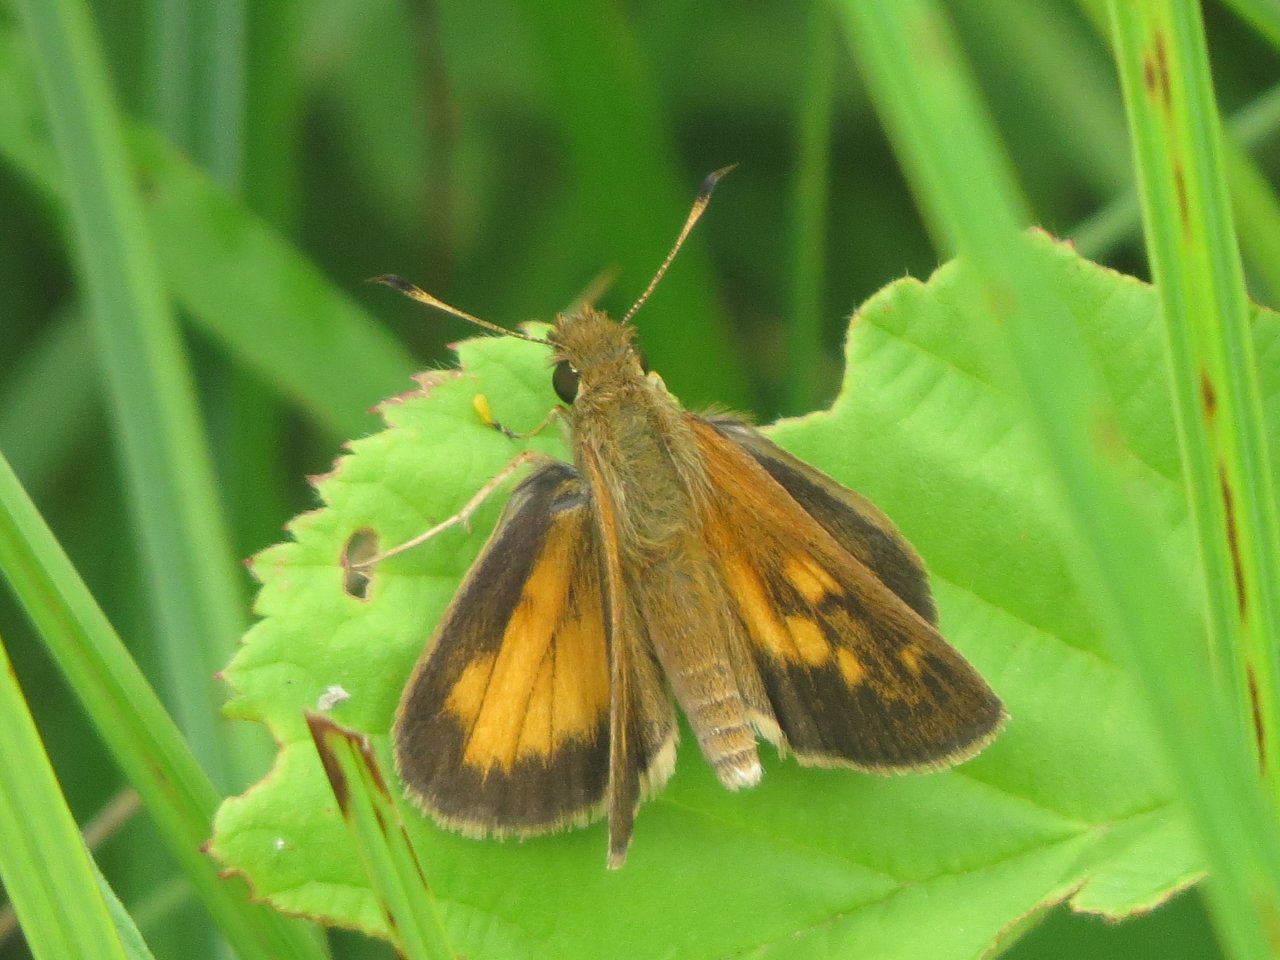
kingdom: Animalia
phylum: Arthropoda
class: Insecta
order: Lepidoptera
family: Hesperiidae
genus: Poanes
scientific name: Poanes viator
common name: Broad-winged Skipper
